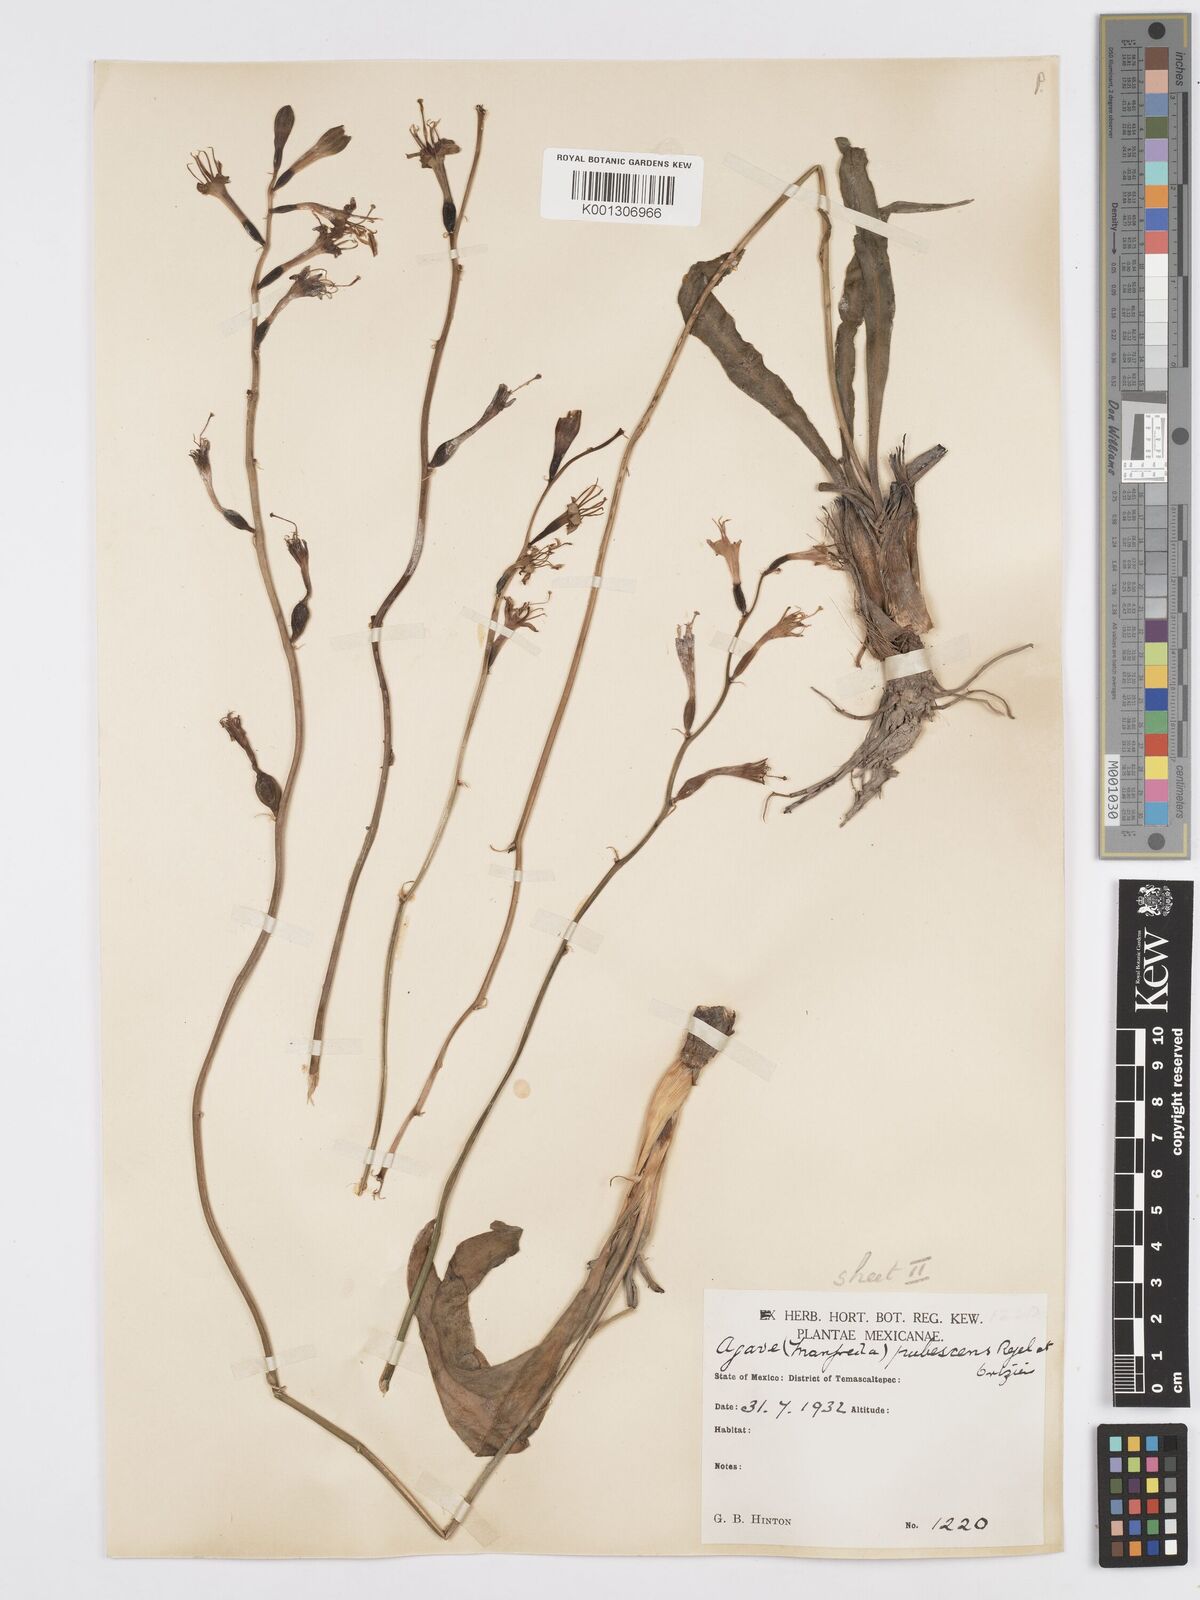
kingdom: Plantae
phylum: Tracheophyta
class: Liliopsida
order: Asparagales
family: Asparagaceae
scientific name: Asparagaceae
